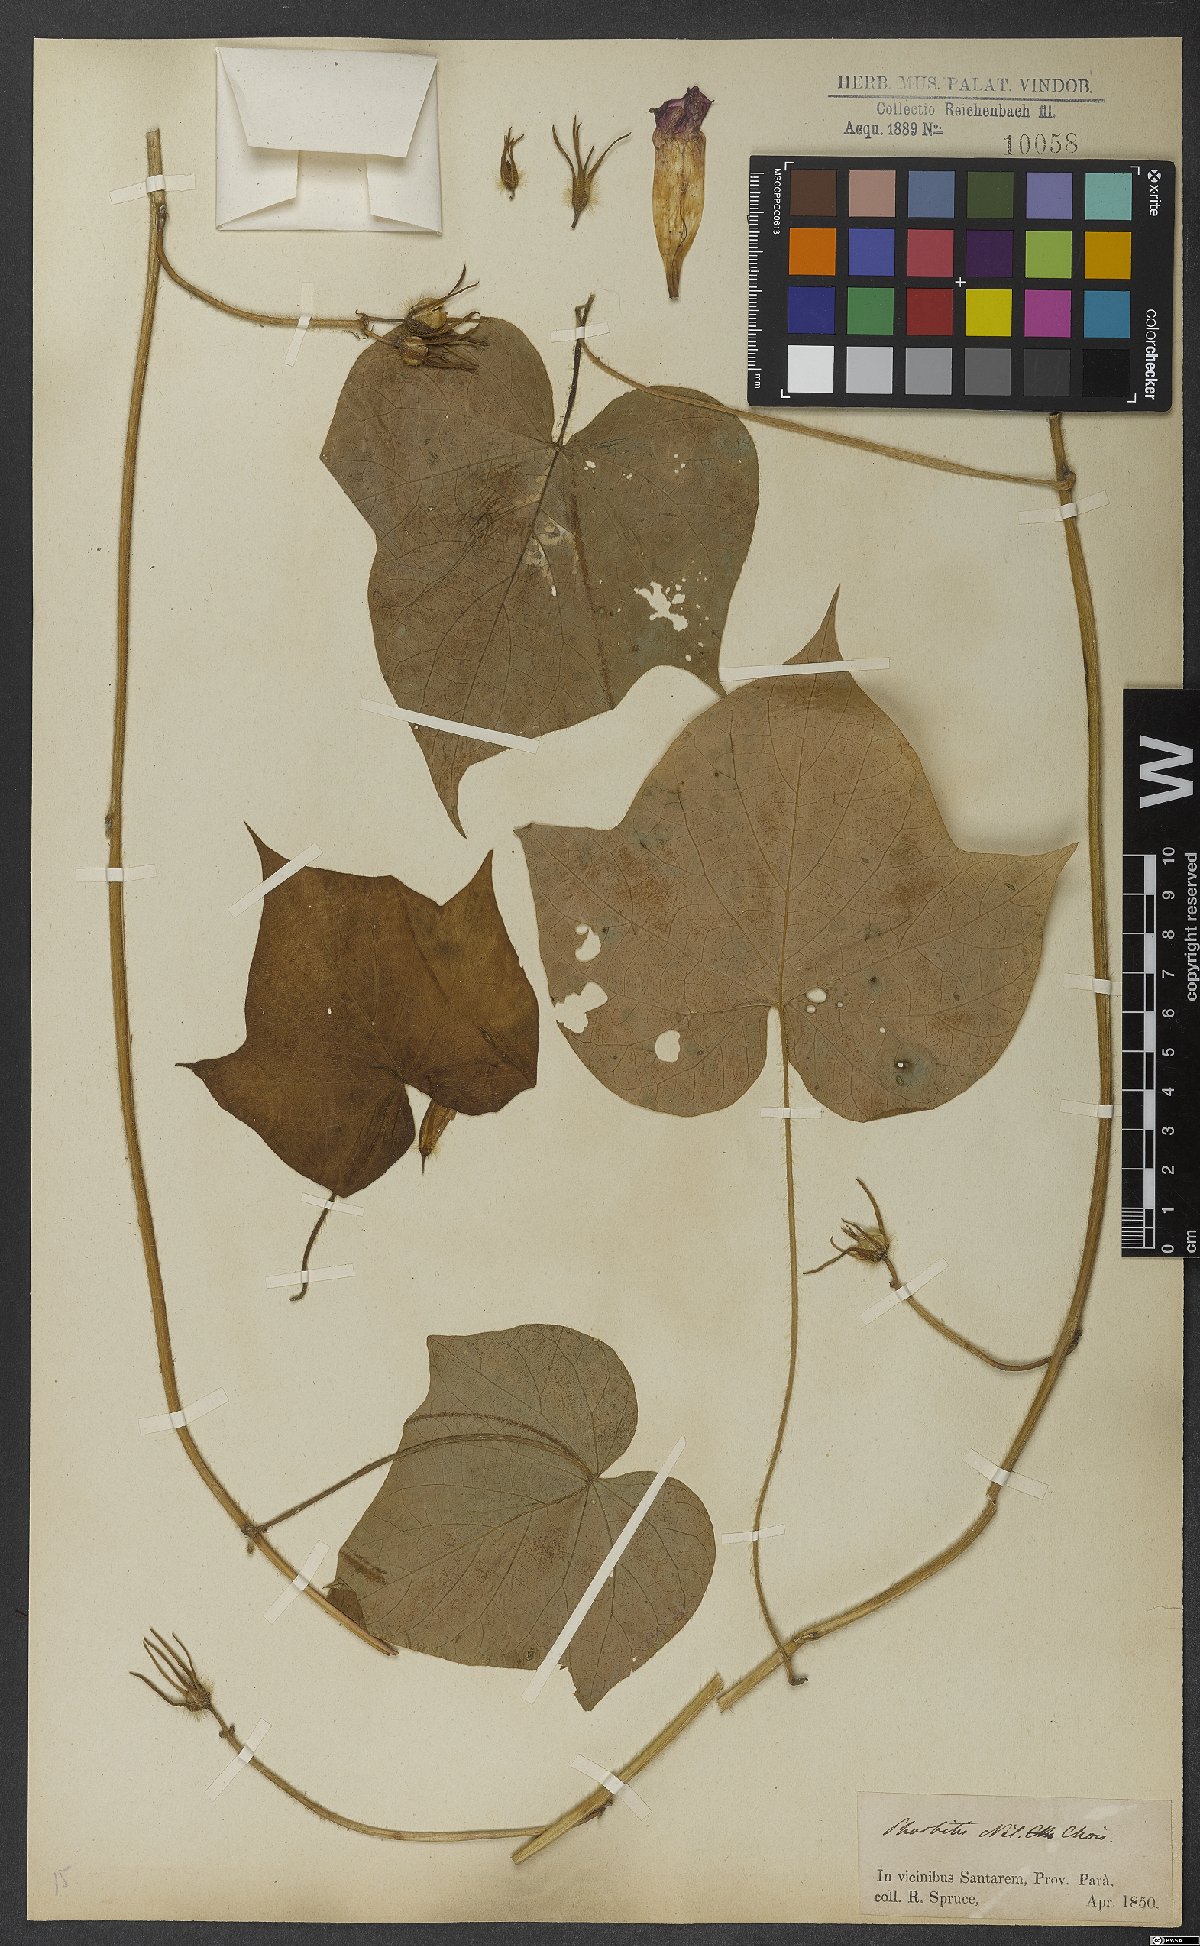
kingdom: Plantae
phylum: Tracheophyta
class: Magnoliopsida
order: Solanales
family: Convolvulaceae
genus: Merremia
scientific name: Merremia hederacea
